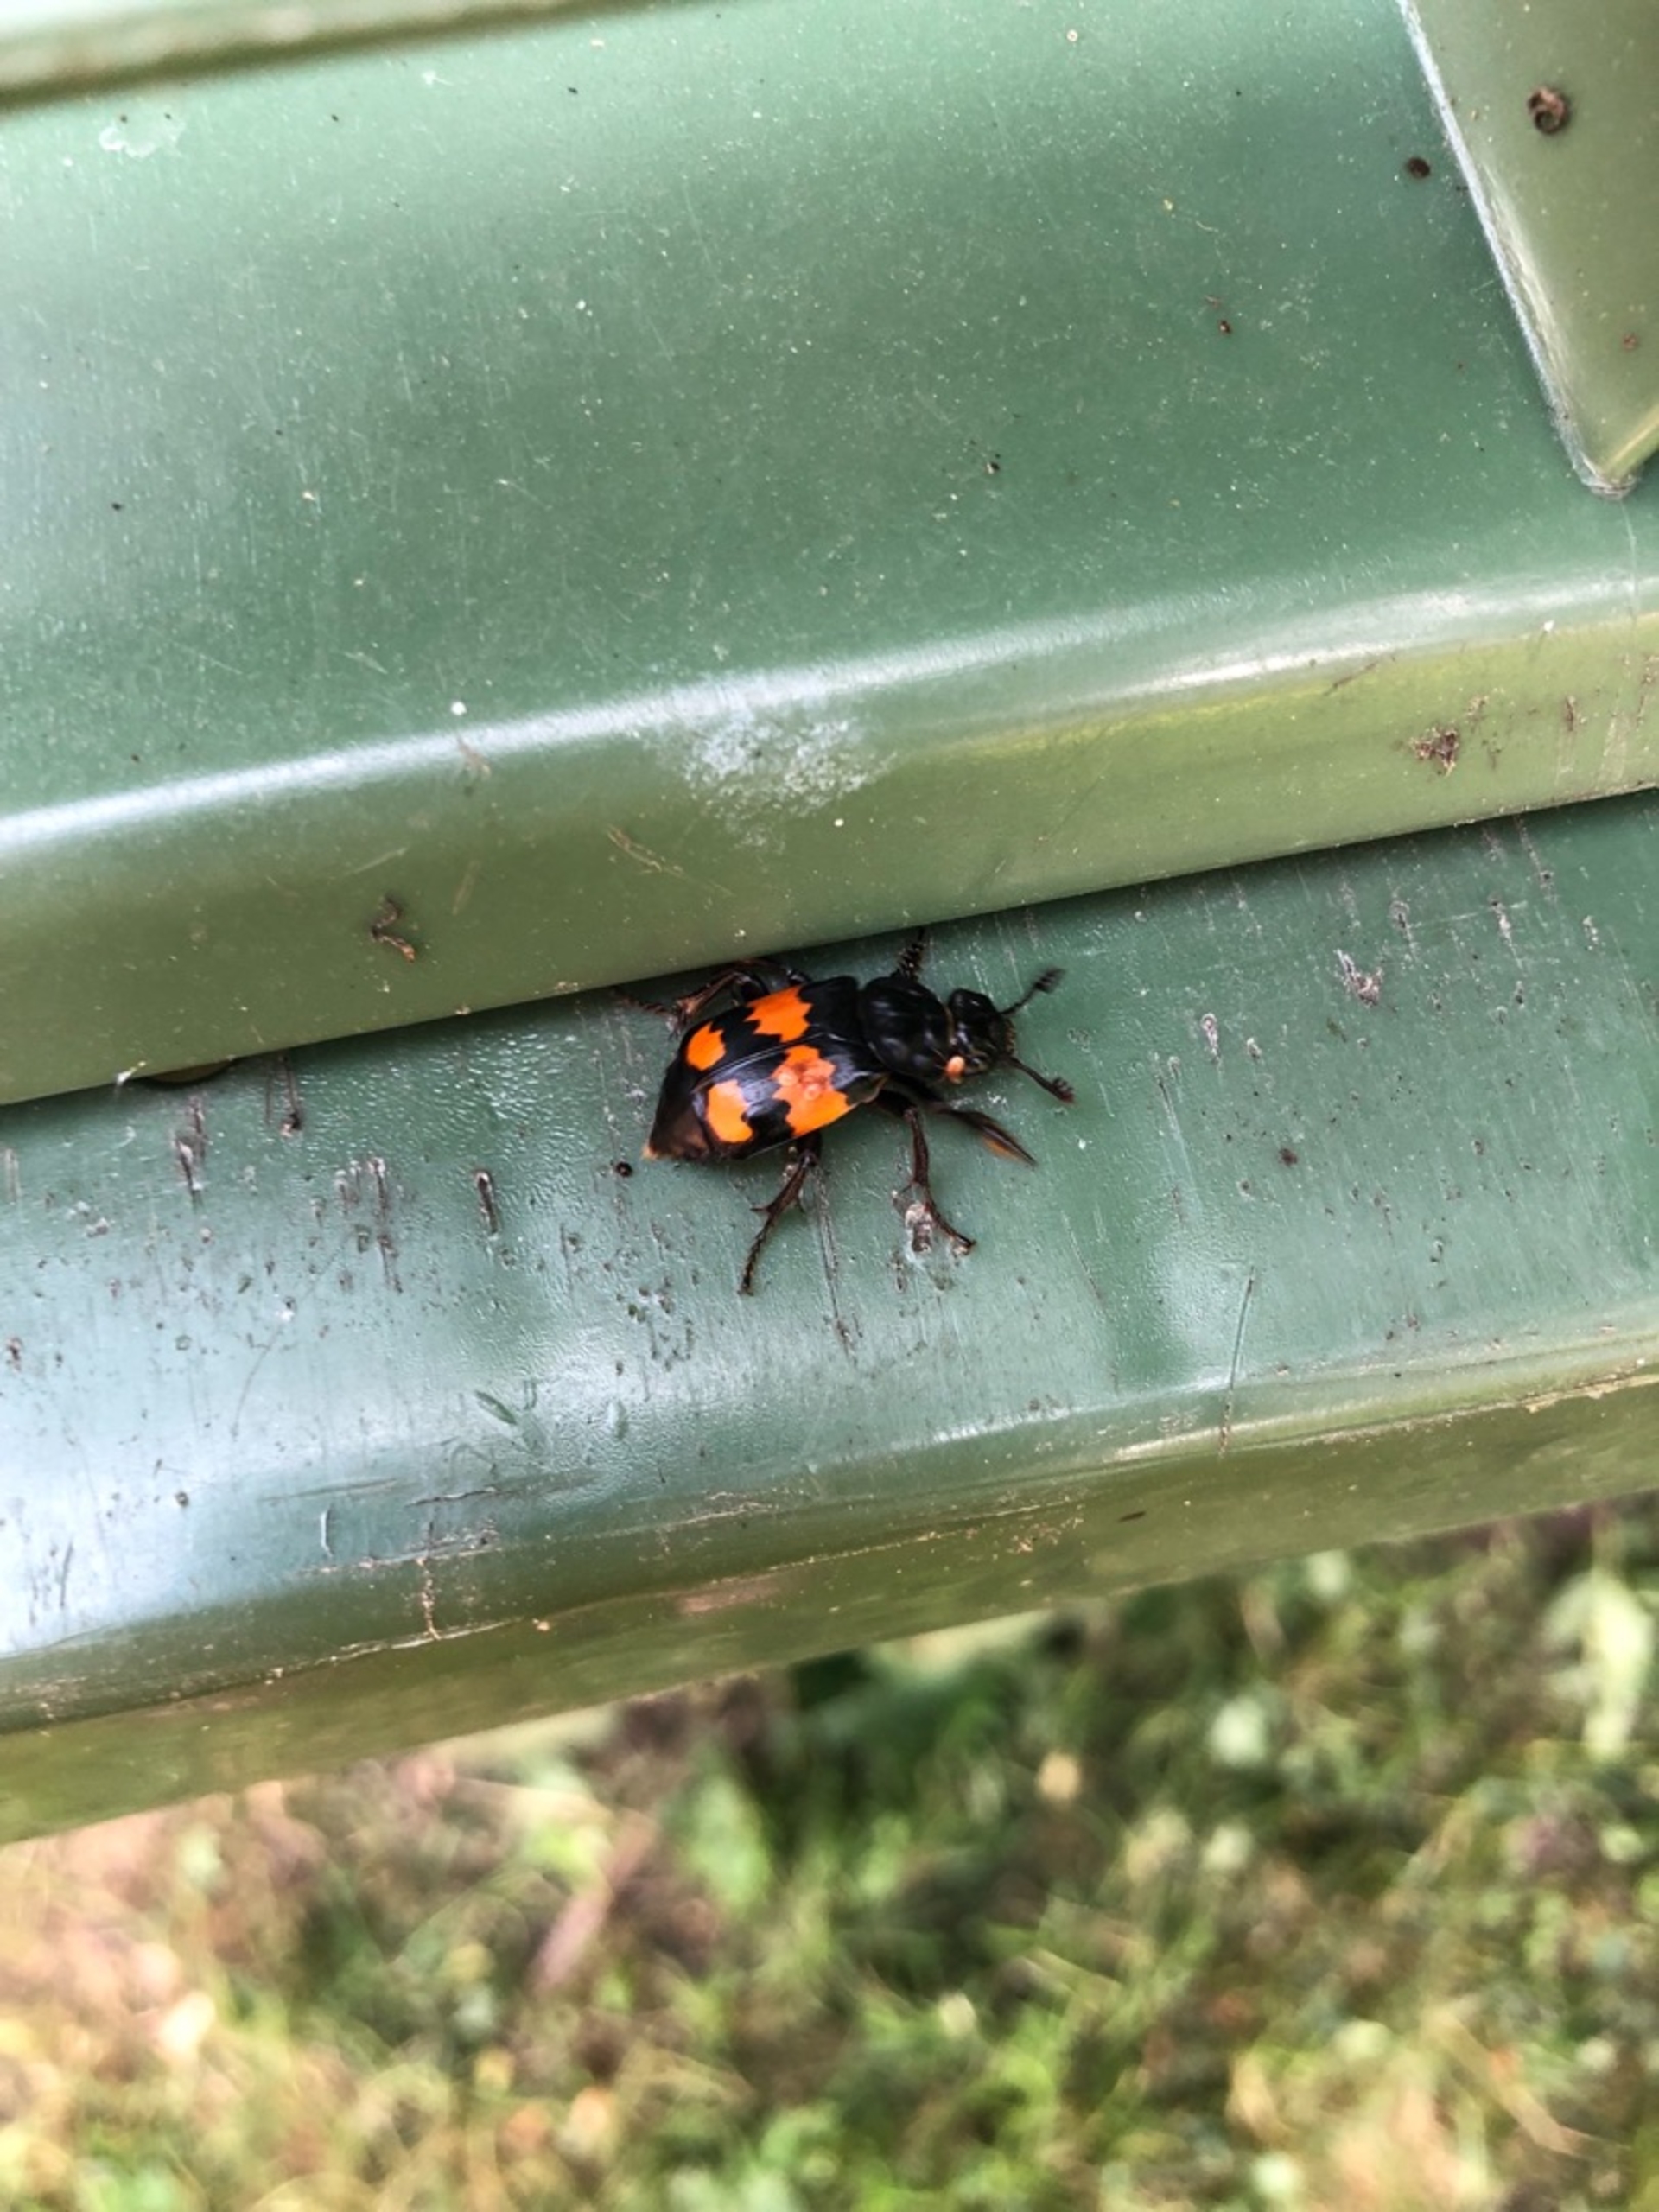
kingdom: Animalia
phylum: Arthropoda
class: Insecta
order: Coleoptera
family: Staphylinidae
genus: Nicrophorus
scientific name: Nicrophorus vespilloides
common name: Sortkøllet ådselgraver
